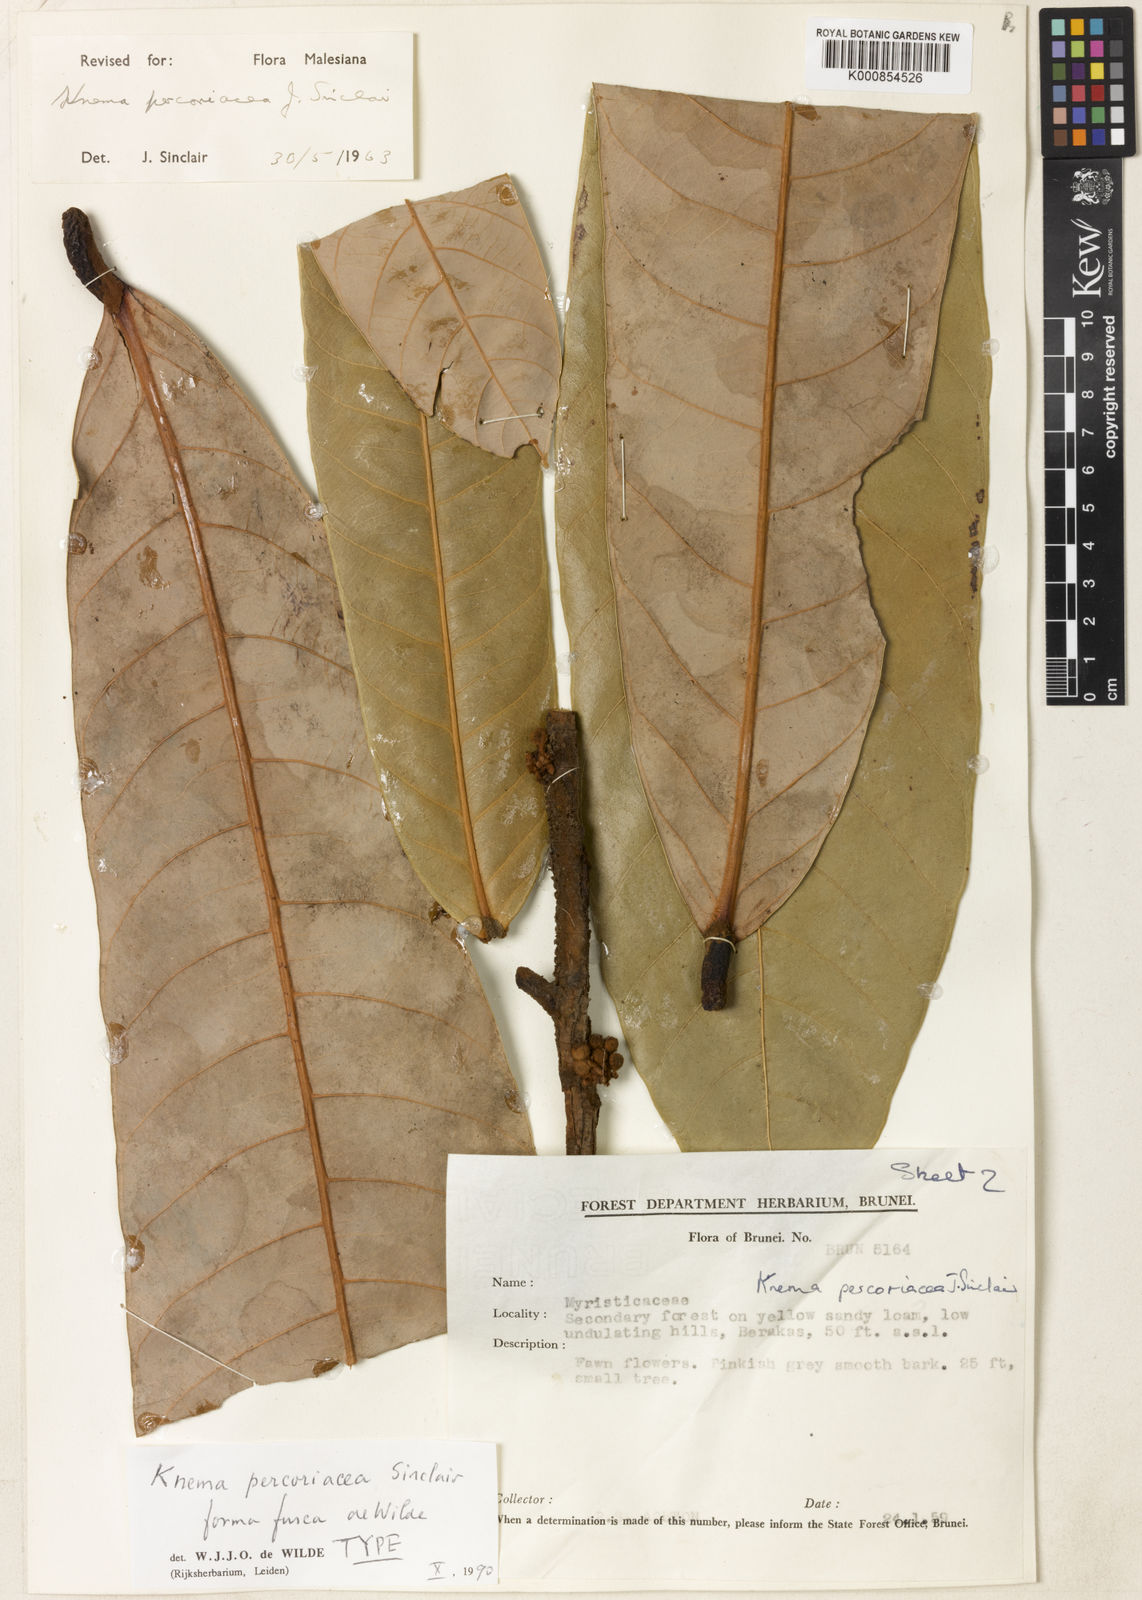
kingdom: Plantae
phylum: Tracheophyta
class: Magnoliopsida
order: Magnoliales
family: Myristicaceae
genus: Knema
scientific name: Knema percoriacea
